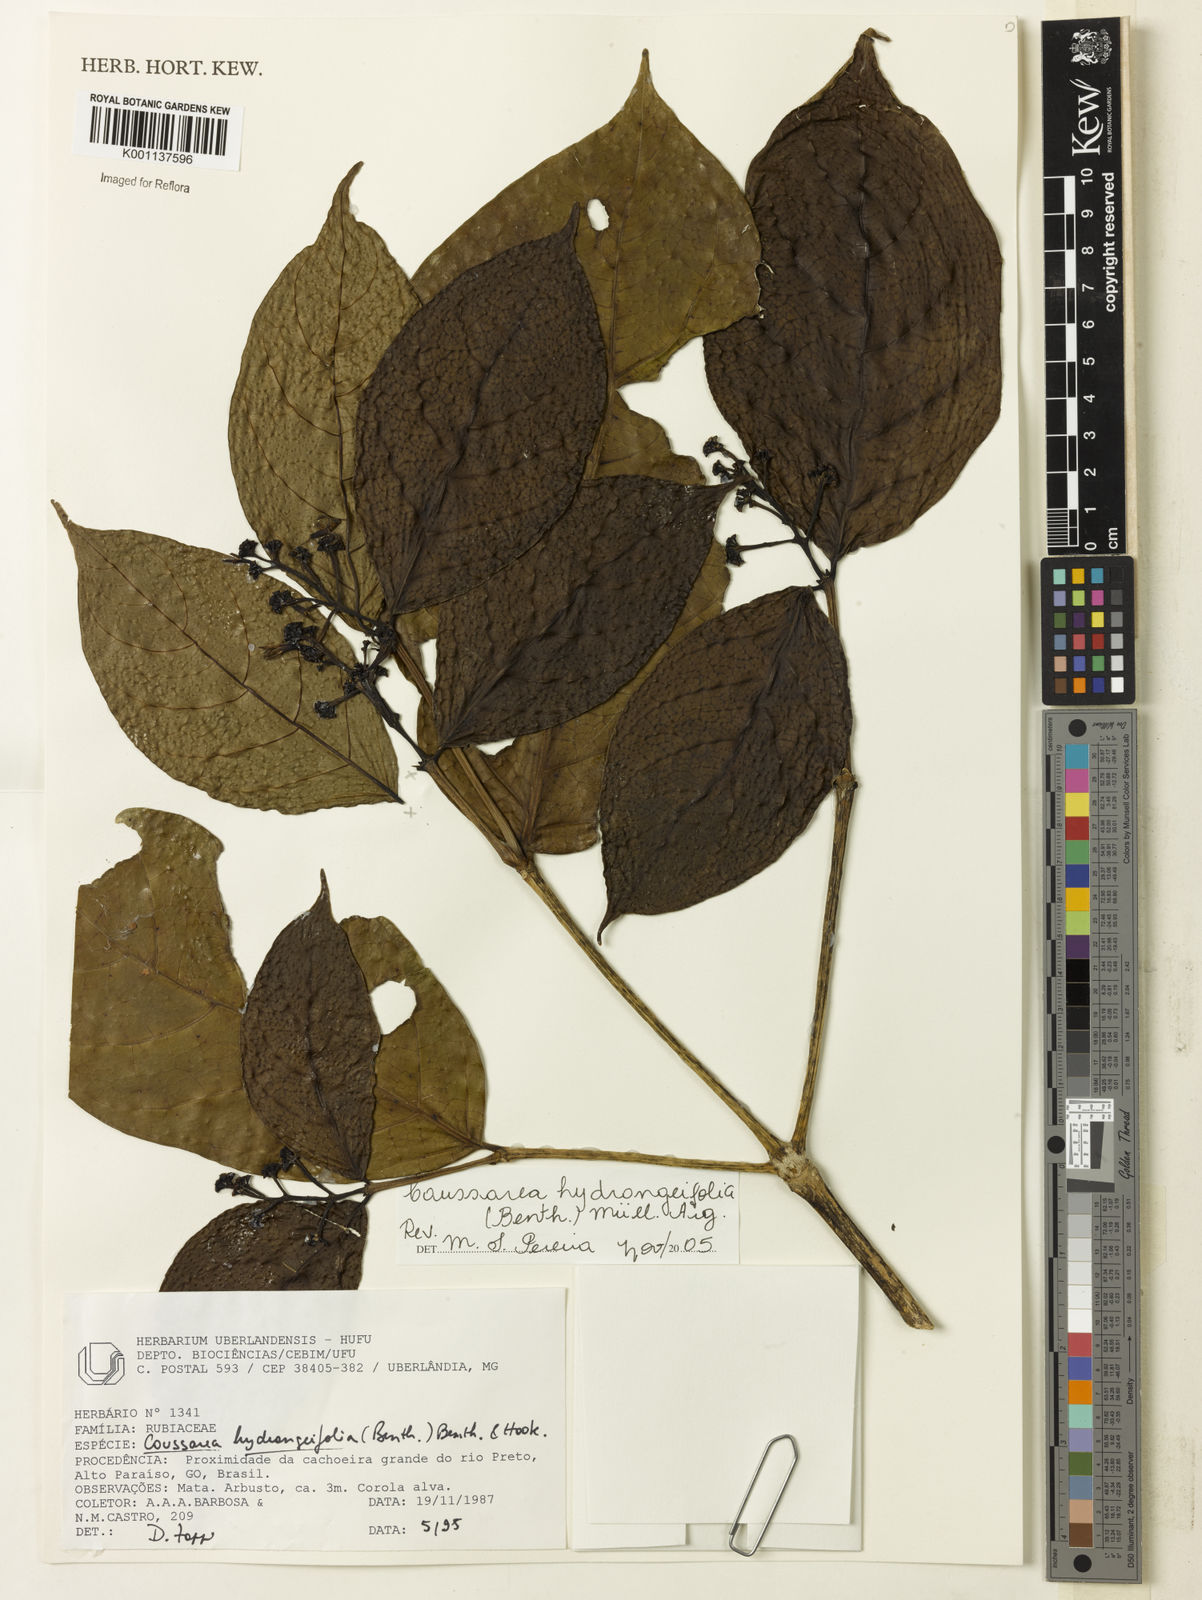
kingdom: Plantae
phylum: Tracheophyta
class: Magnoliopsida
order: Gentianales
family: Rubiaceae
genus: Coussarea
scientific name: Coussarea
